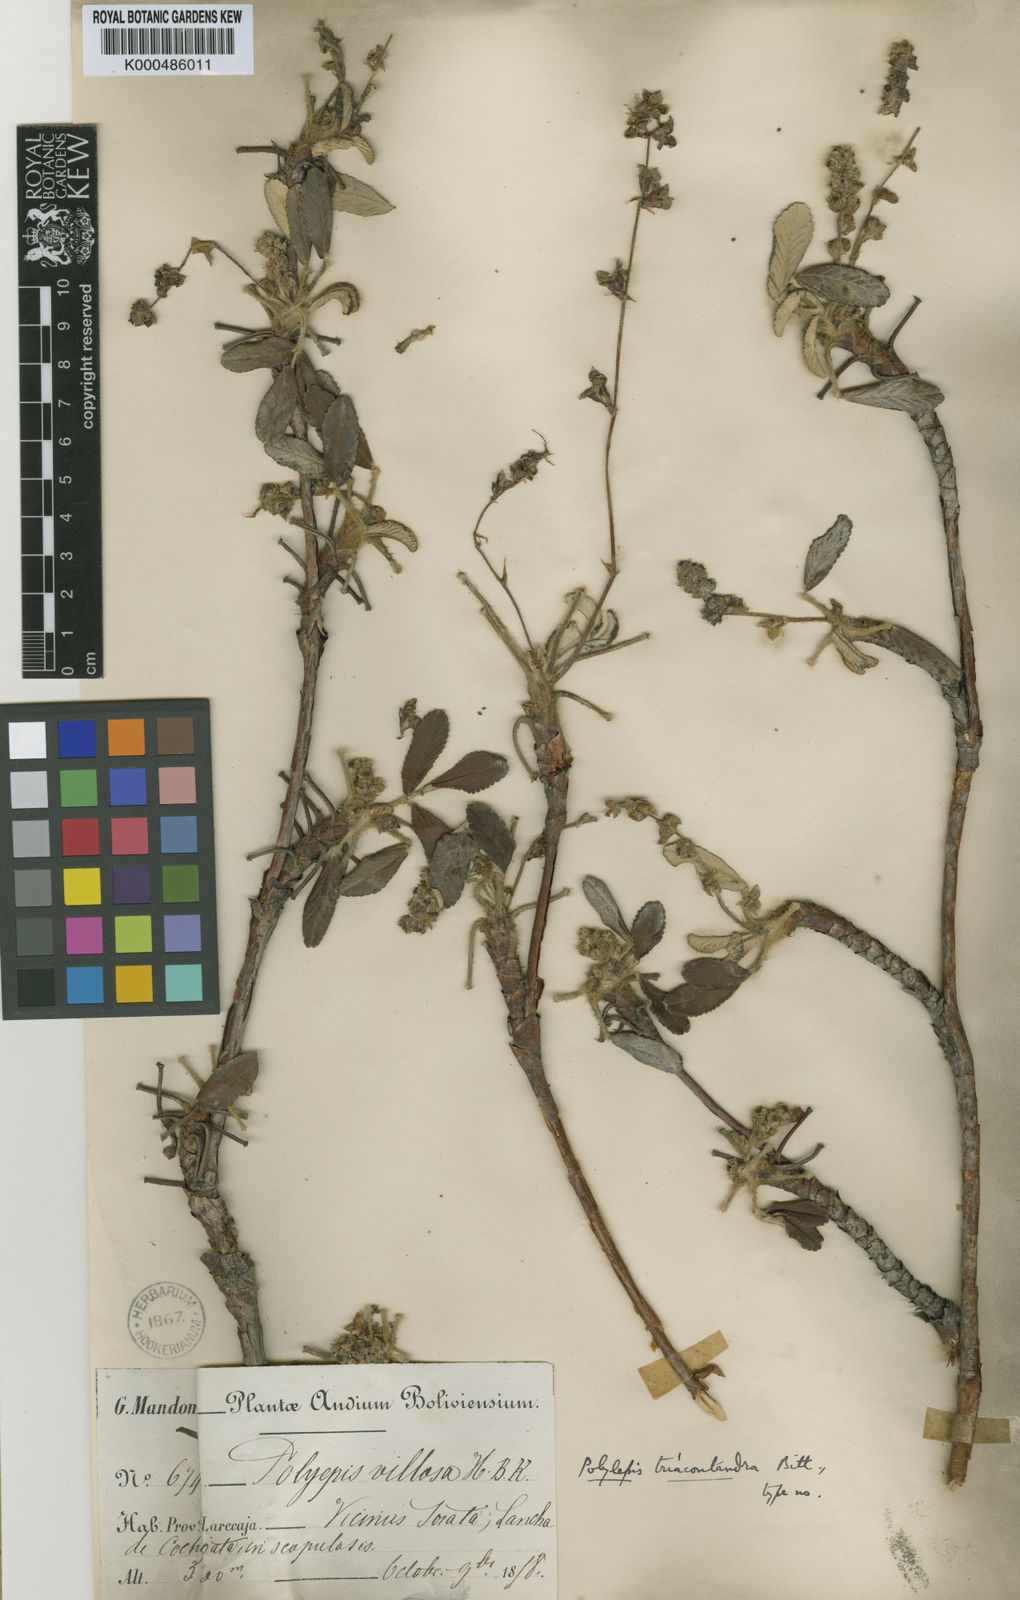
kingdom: Plantae
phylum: Tracheophyta
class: Magnoliopsida
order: Rosales
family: Rosaceae
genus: Polylepis
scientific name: Polylepis besseri
